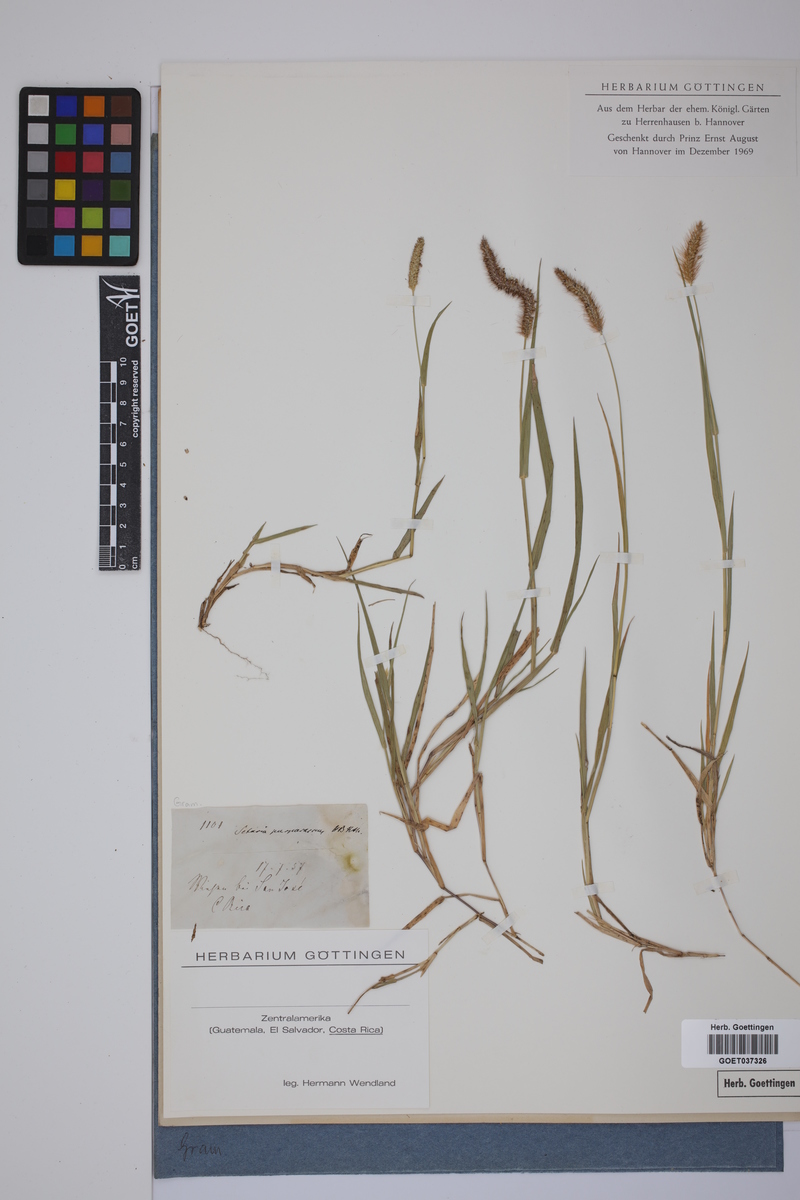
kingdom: Plantae
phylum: Tracheophyta
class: Liliopsida
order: Poales
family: Poaceae
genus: Setaria
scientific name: Setaria parviflora
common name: Knotroot bristle-grass
